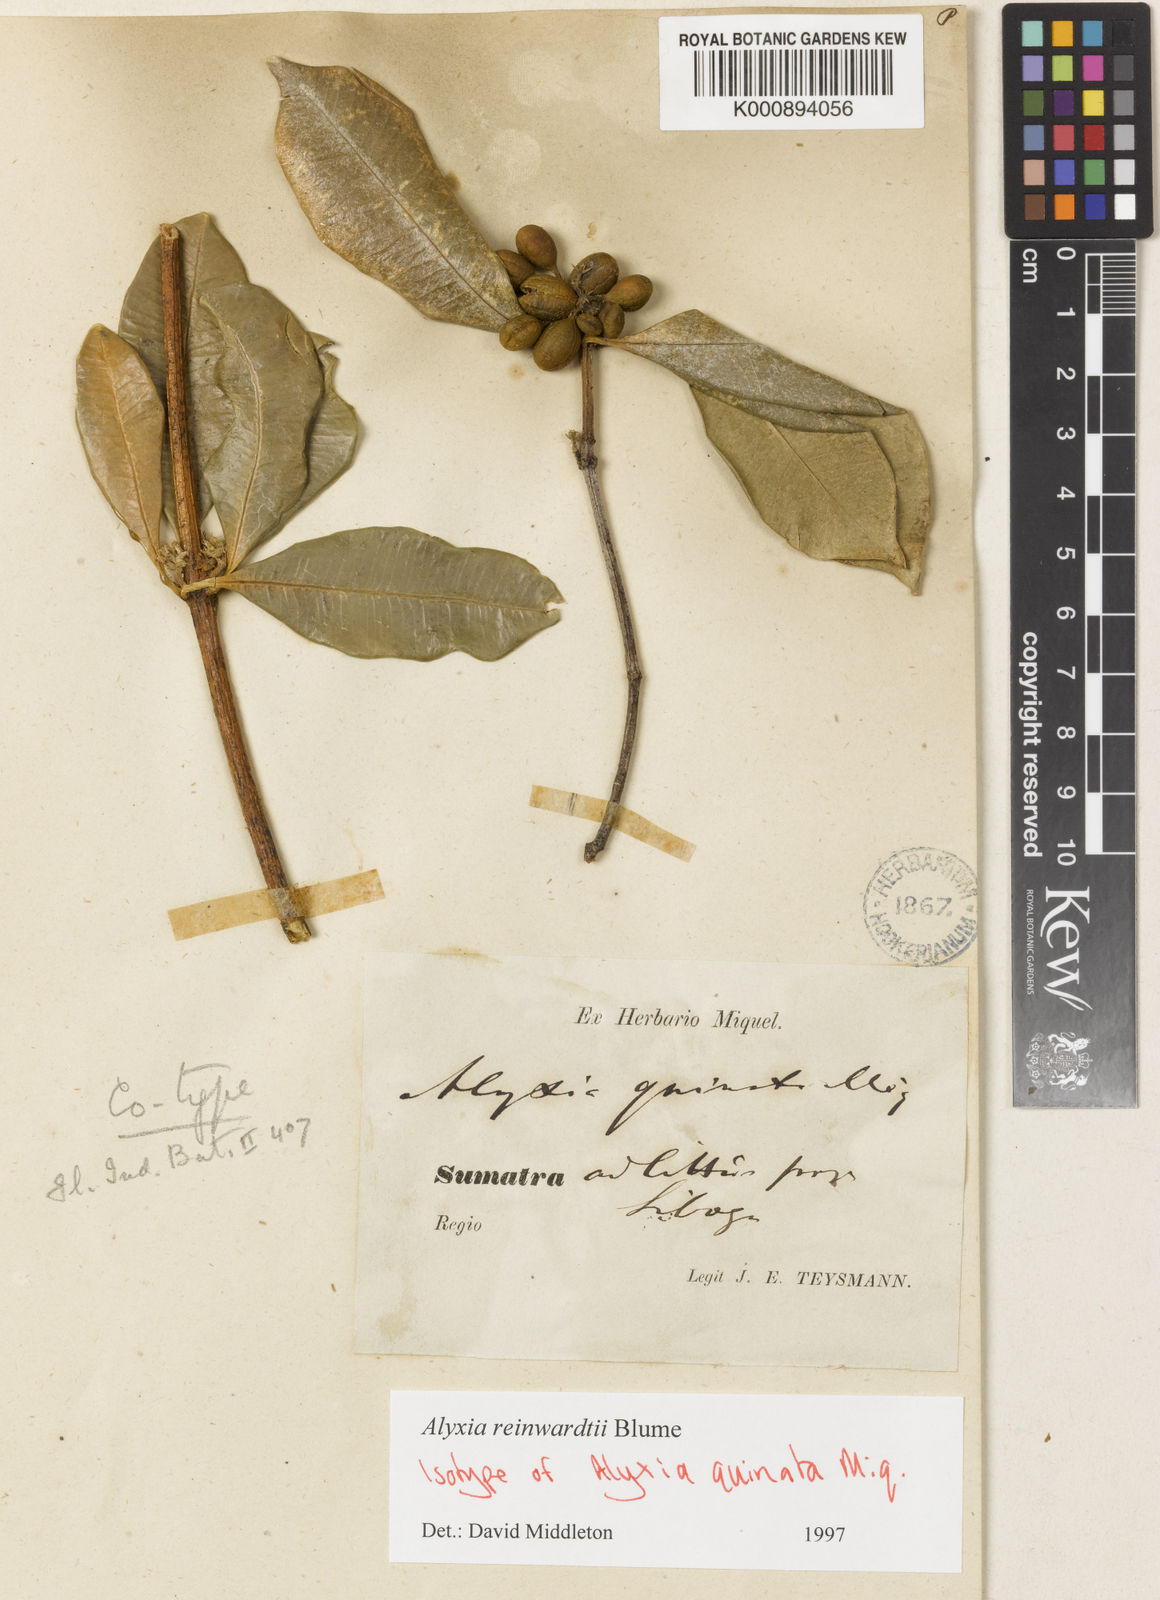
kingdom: Plantae
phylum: Tracheophyta
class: Magnoliopsida
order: Gentianales
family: Apocynaceae
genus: Alyxia
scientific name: Alyxia reinwardtii
